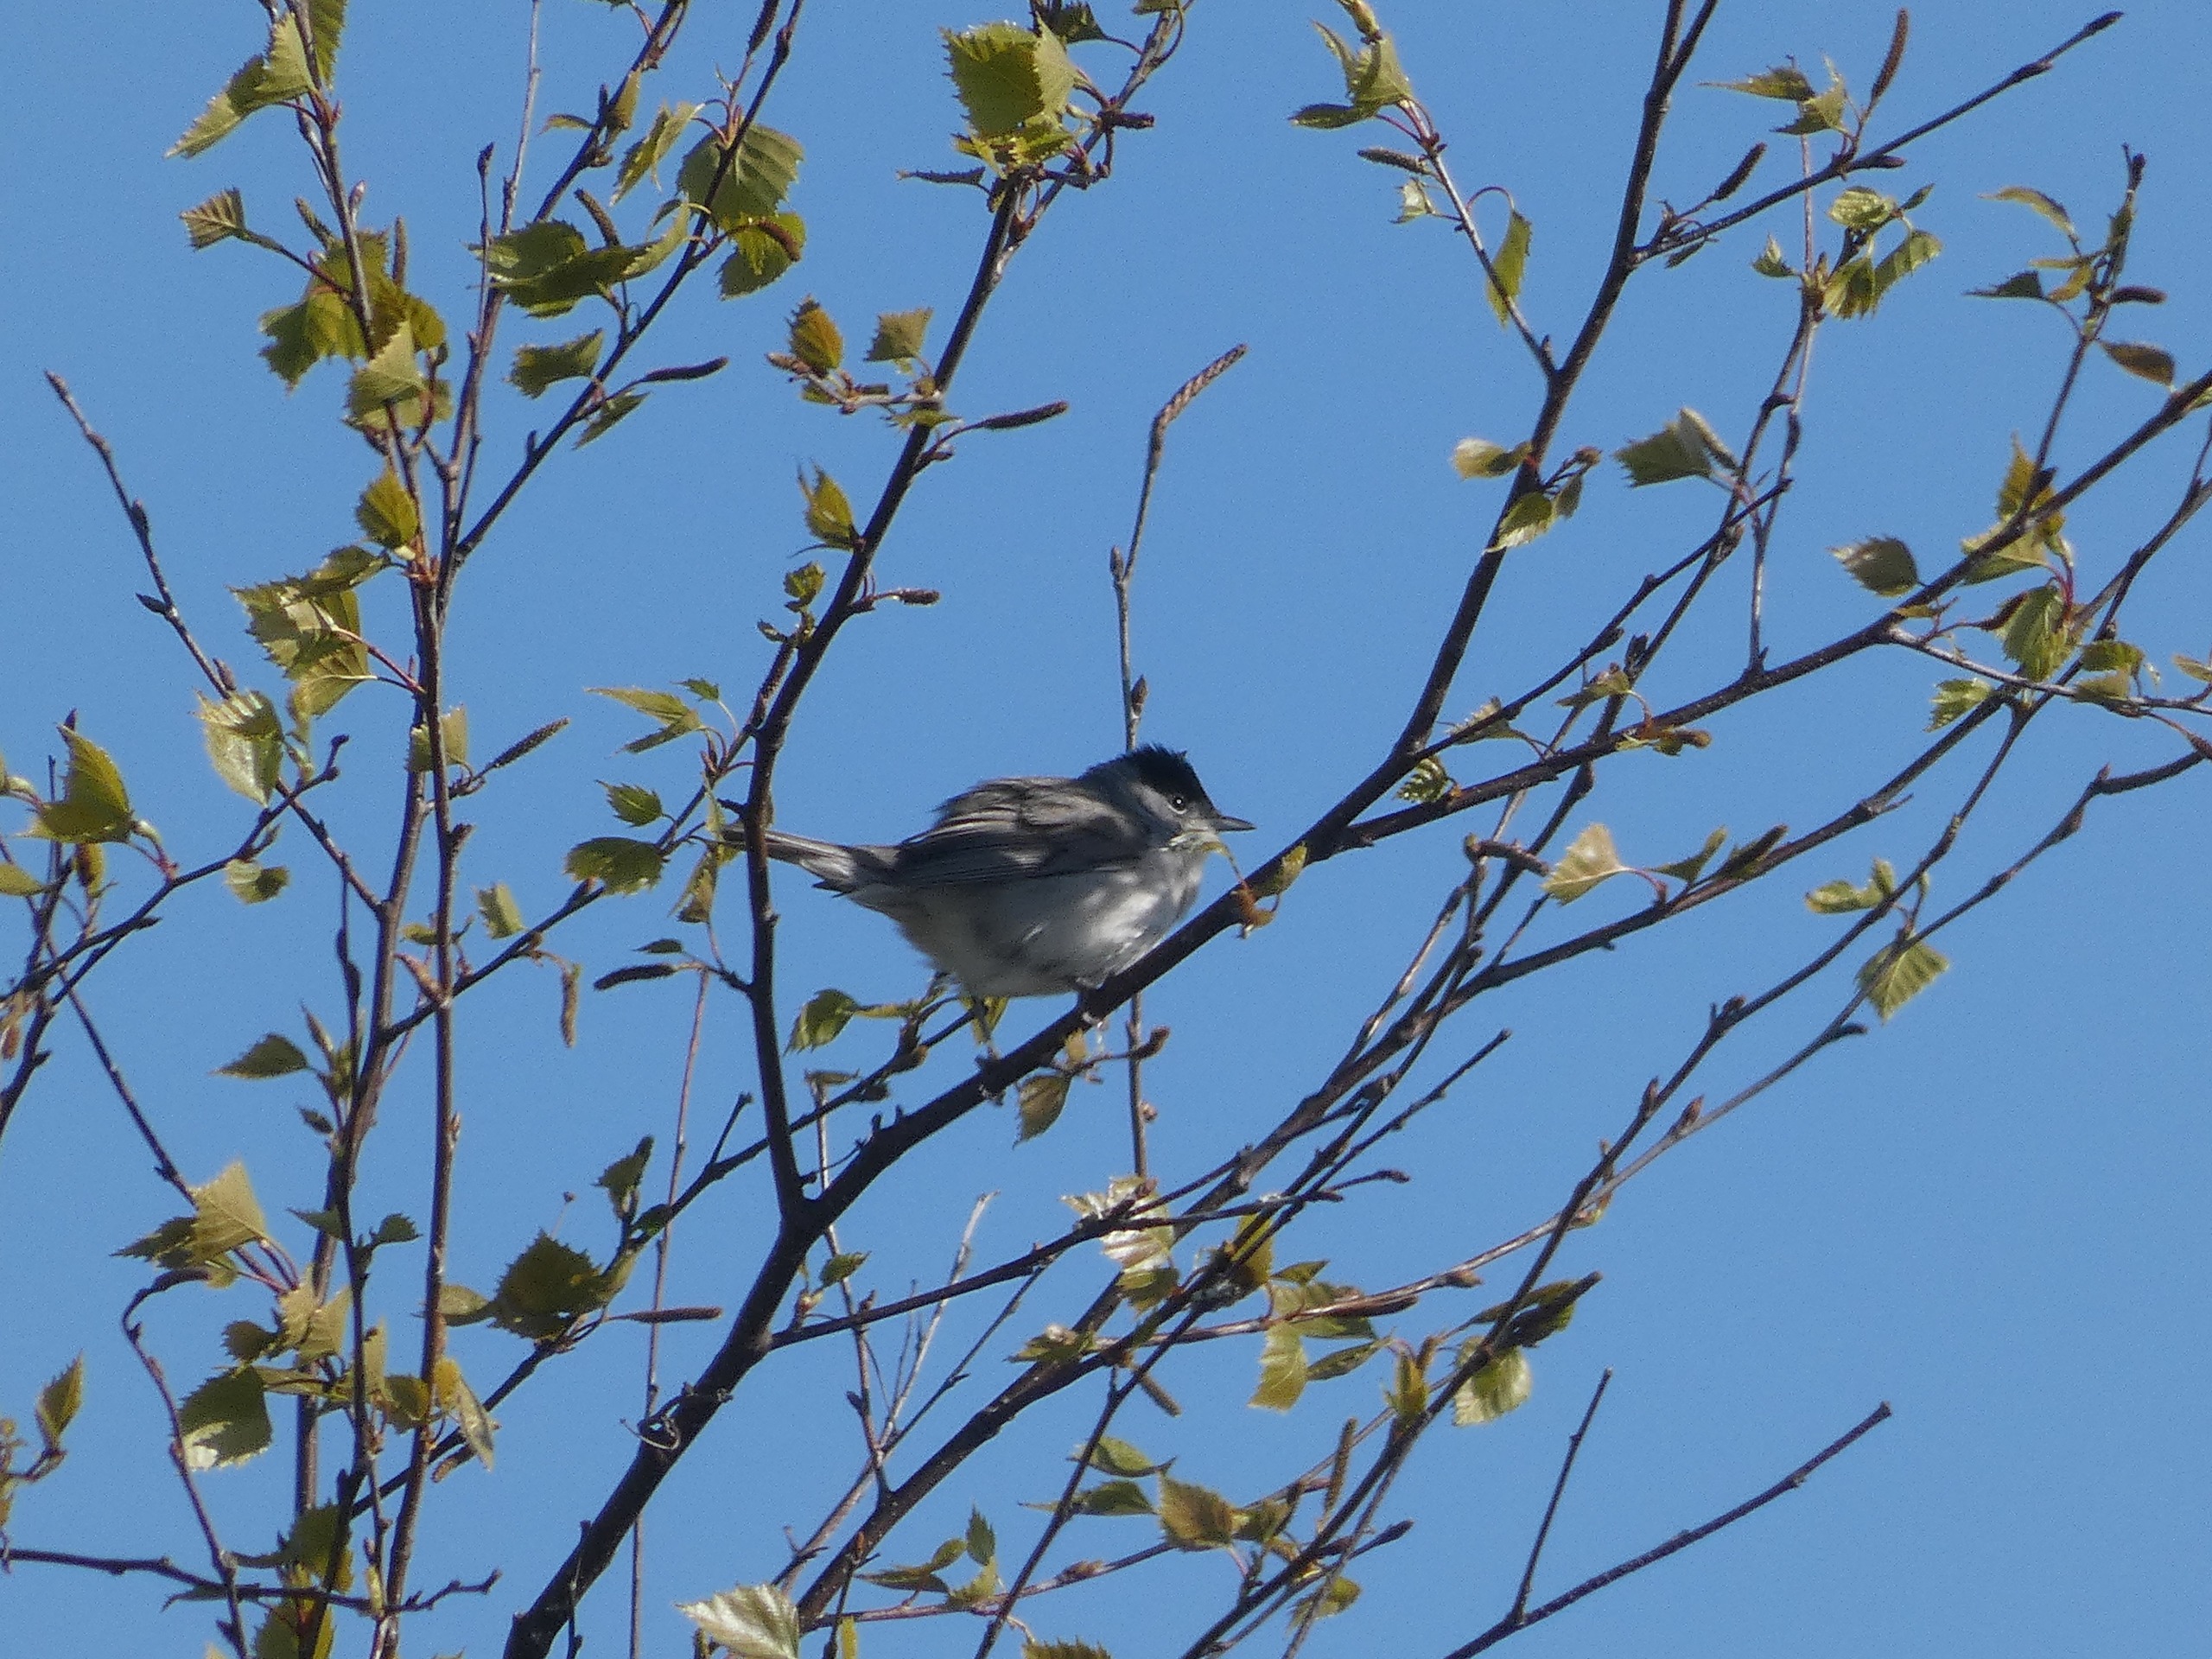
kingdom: Animalia
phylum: Chordata
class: Aves
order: Passeriformes
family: Sylviidae
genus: Sylvia
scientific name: Sylvia atricapilla
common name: Munk
